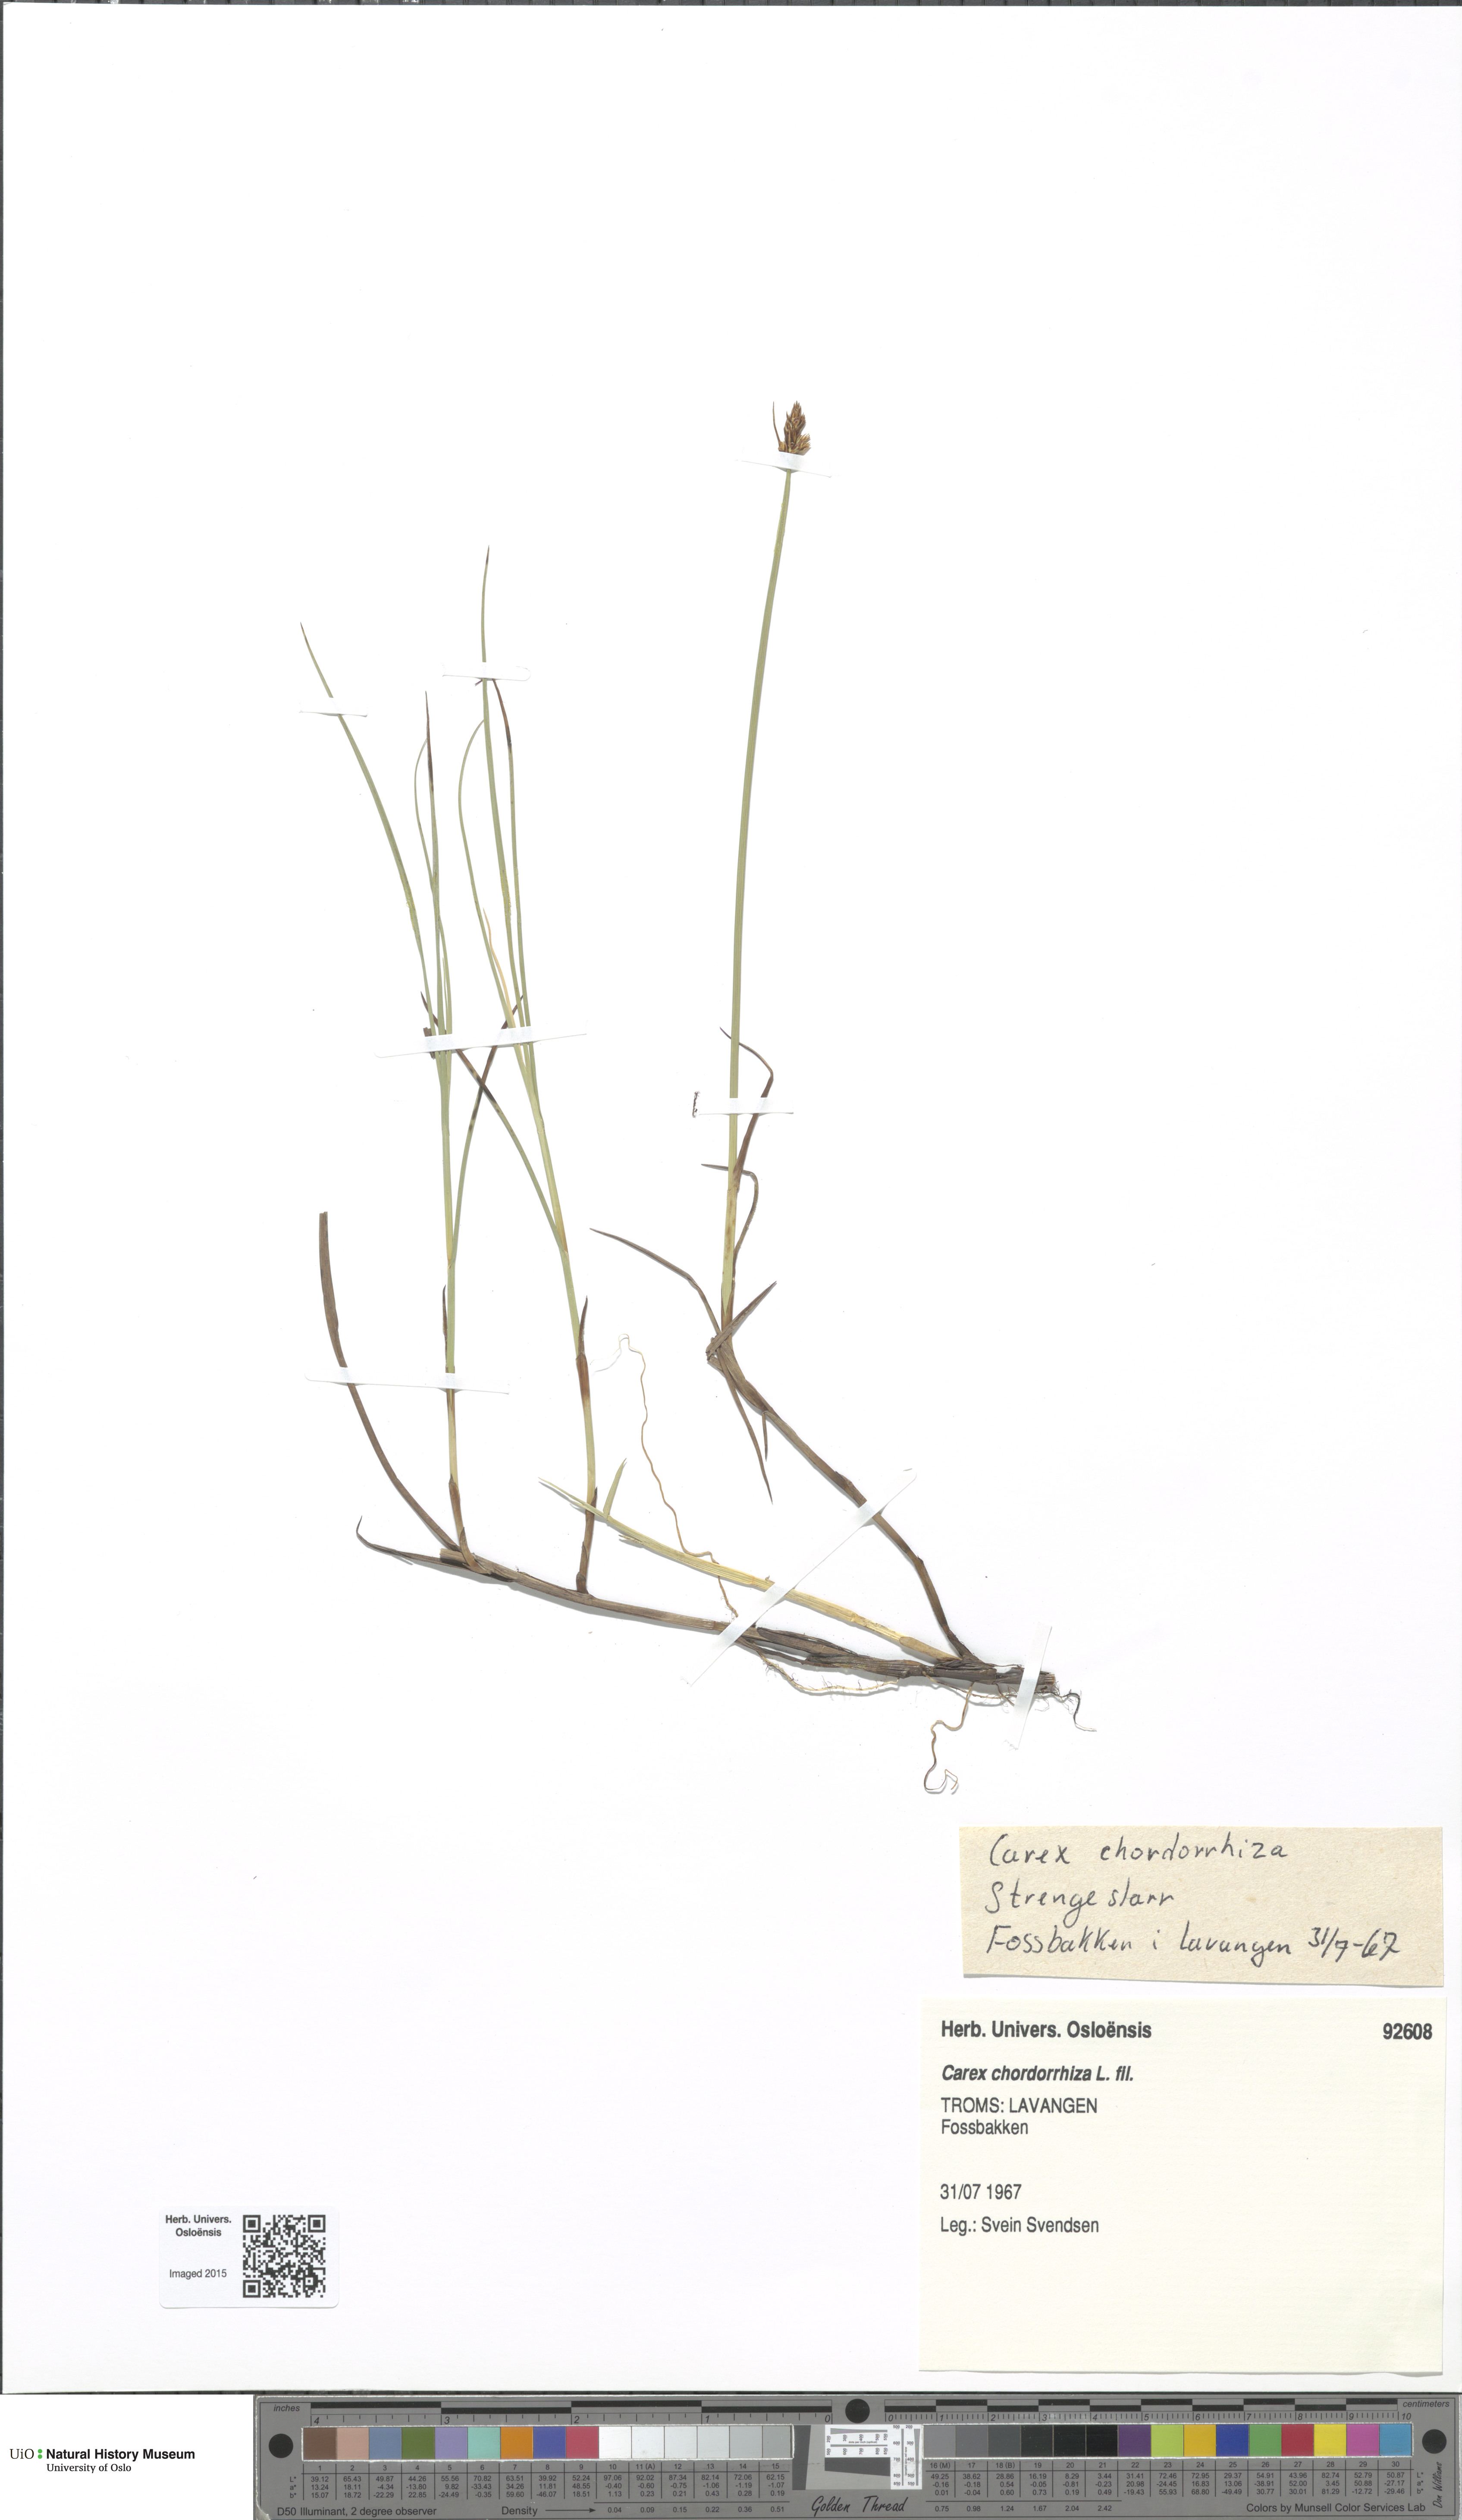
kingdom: Plantae
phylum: Tracheophyta
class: Liliopsida
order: Poales
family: Cyperaceae
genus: Carex
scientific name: Carex chordorrhiza
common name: String sedge
